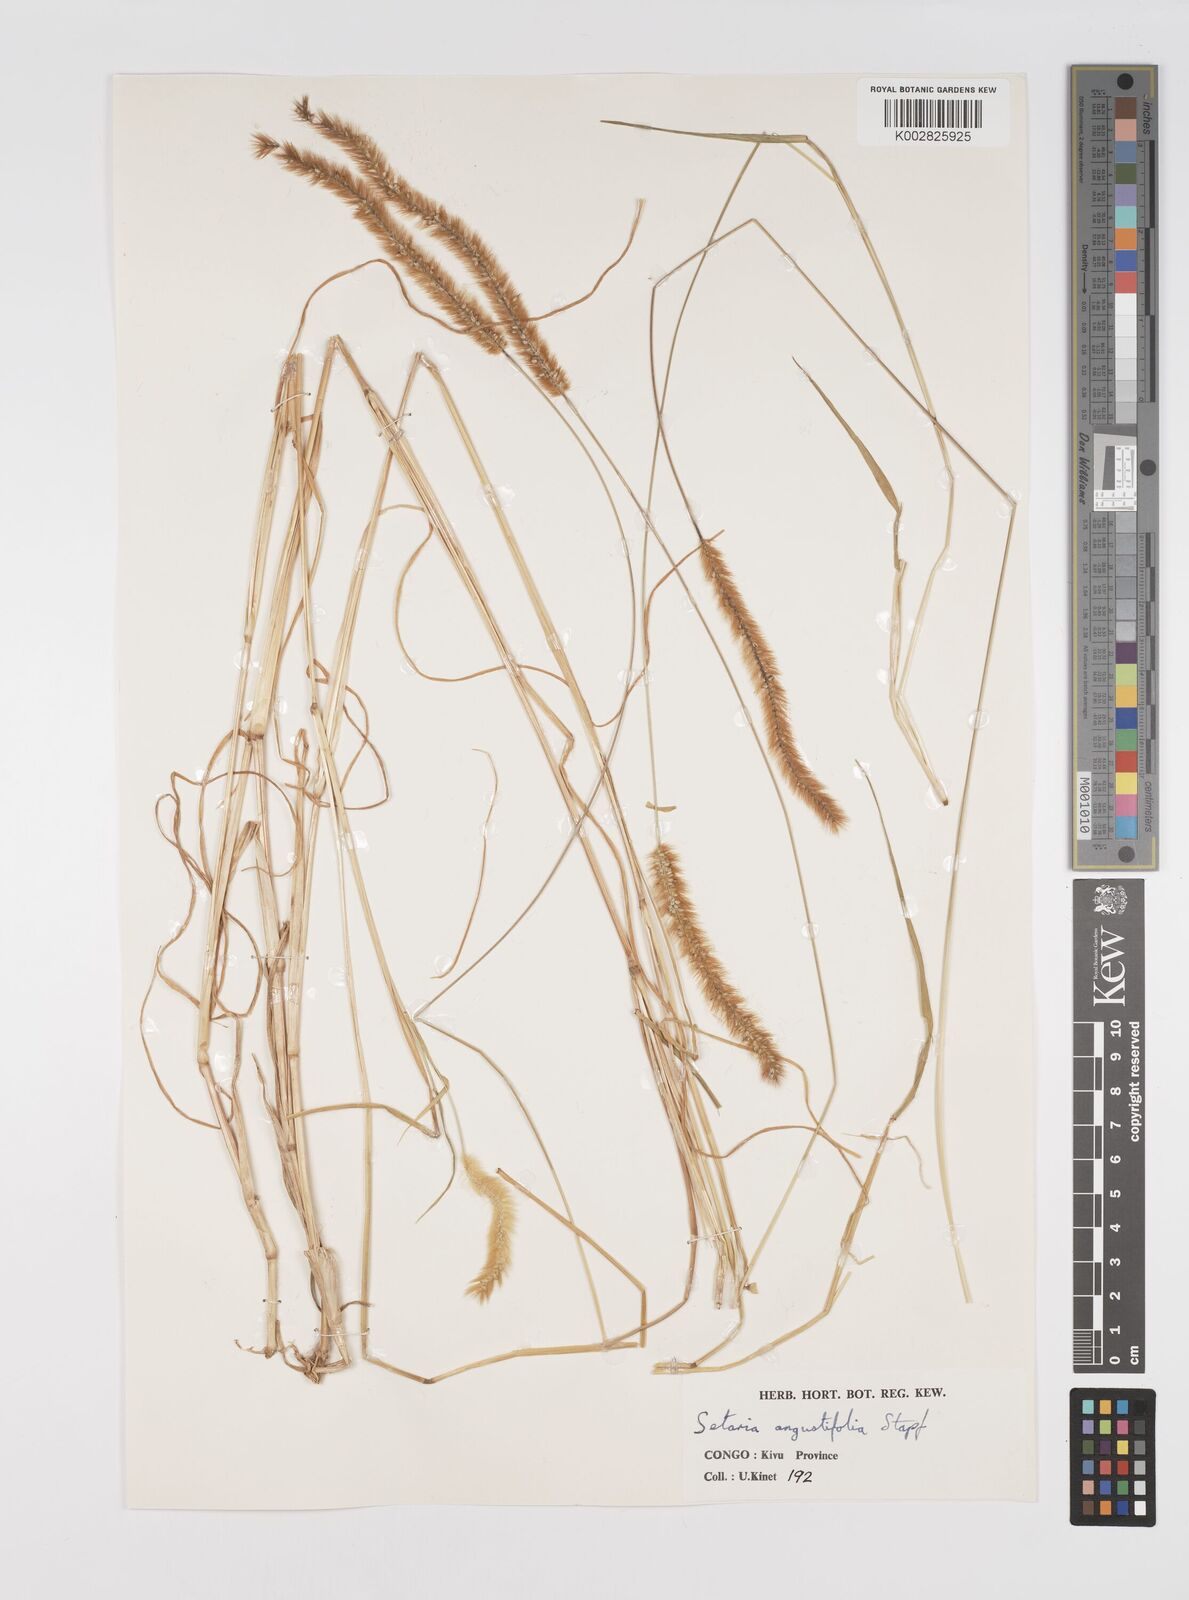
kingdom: Plantae
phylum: Tracheophyta
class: Liliopsida
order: Poales
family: Poaceae
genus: Setaria
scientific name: Setaria pumila
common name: Yellow bristle-grass
